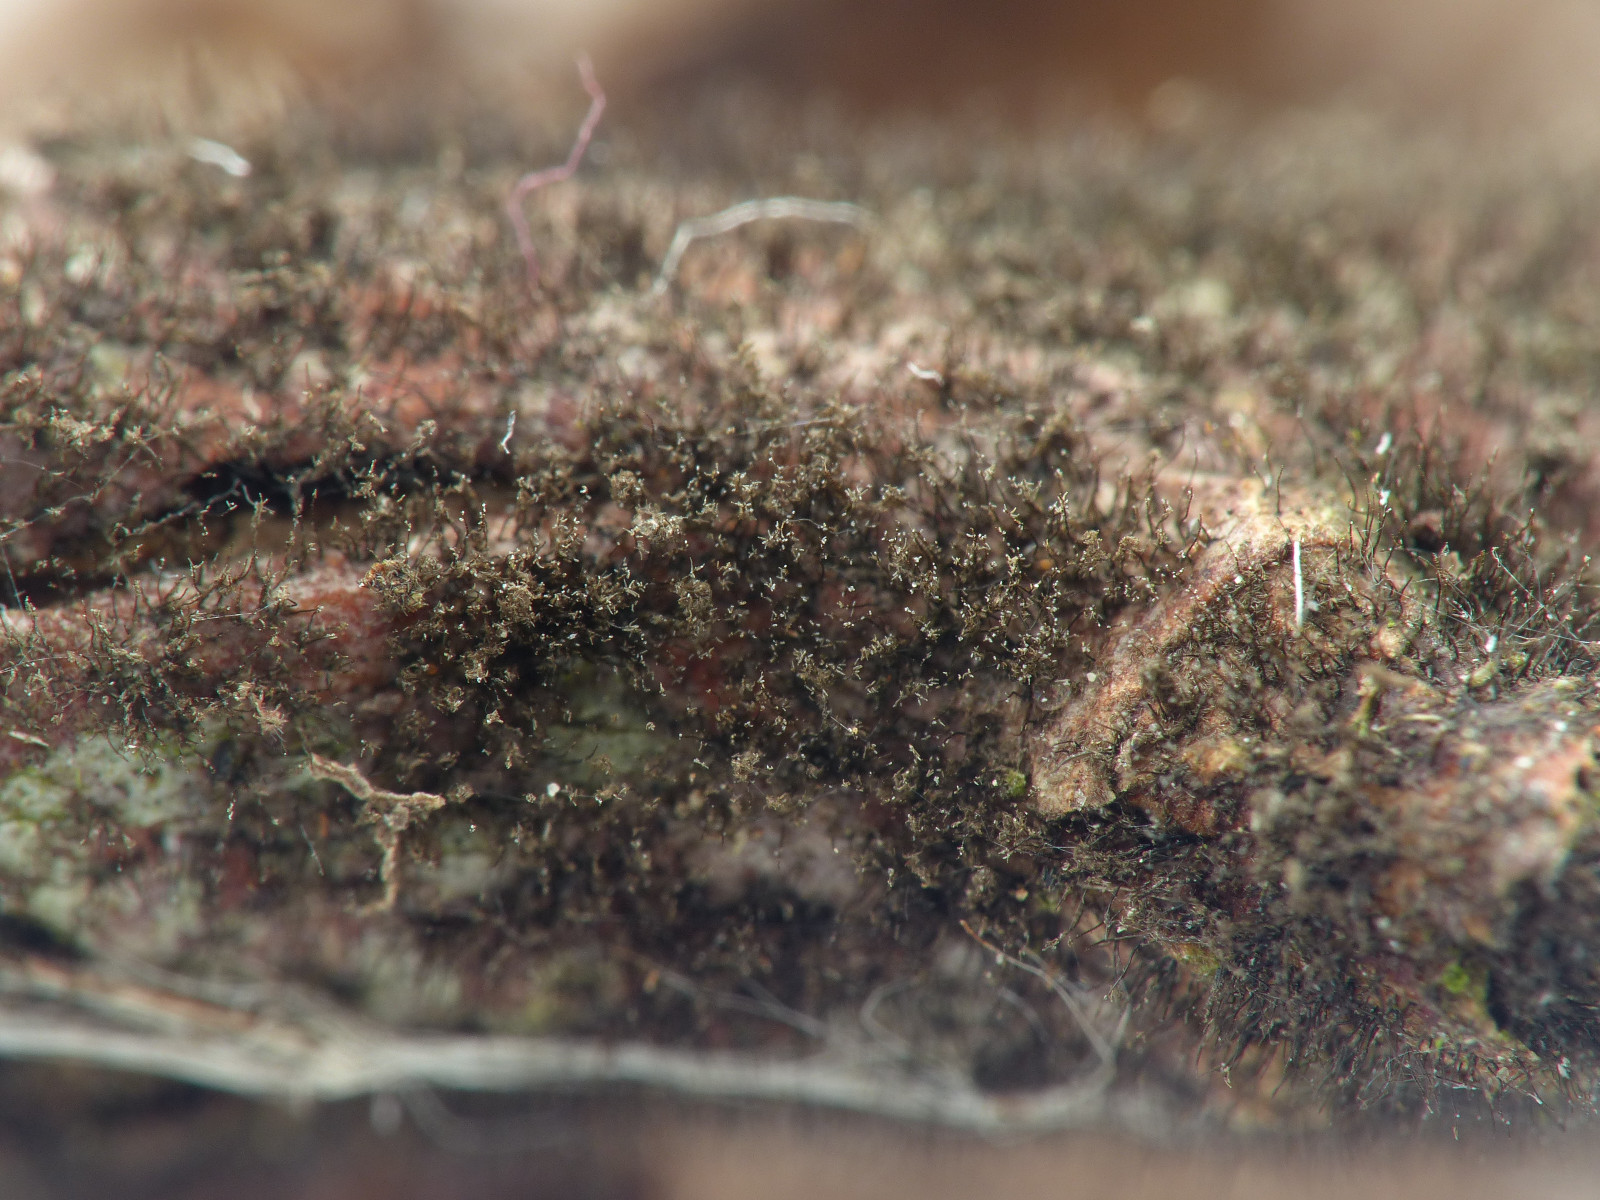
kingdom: Fungi
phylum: Ascomycota
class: Dothideomycetes
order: Pleosporales
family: Massarinaceae
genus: Helminthosporium
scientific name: Helminthosporium velutinum
